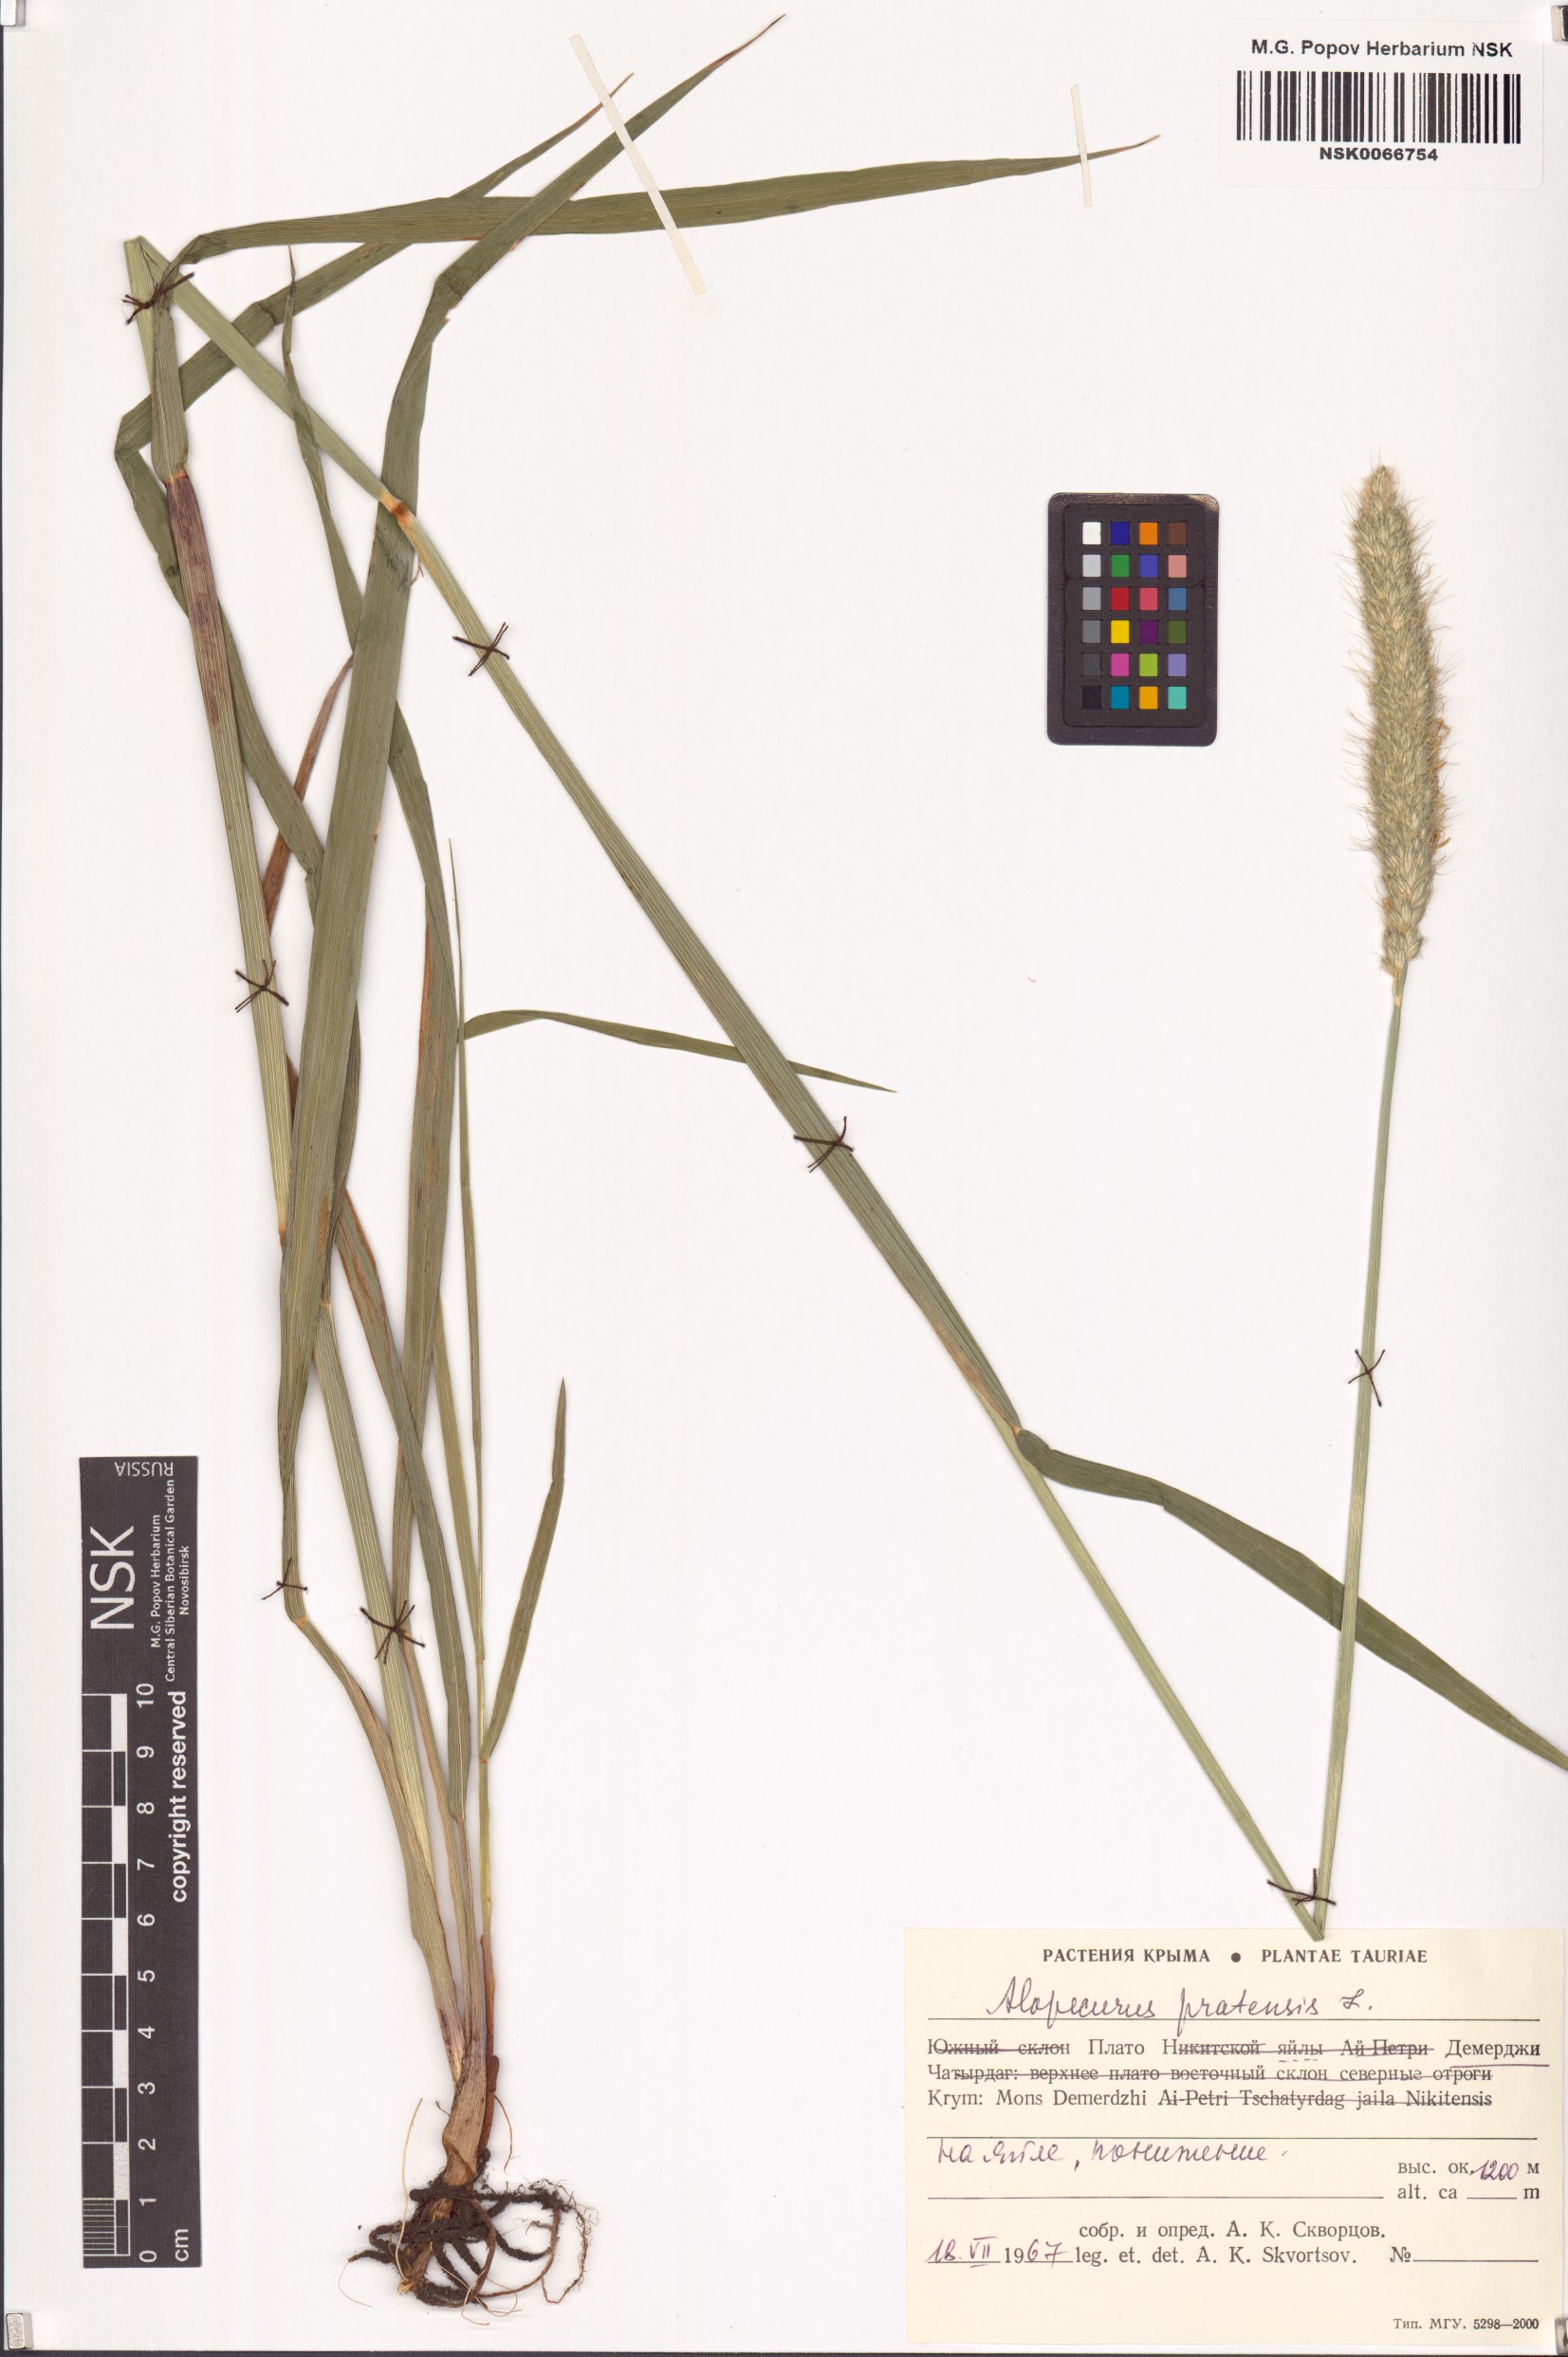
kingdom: Plantae
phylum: Tracheophyta
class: Liliopsida
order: Poales
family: Poaceae
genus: Alopecurus
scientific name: Alopecurus pratensis
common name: Meadow foxtail
